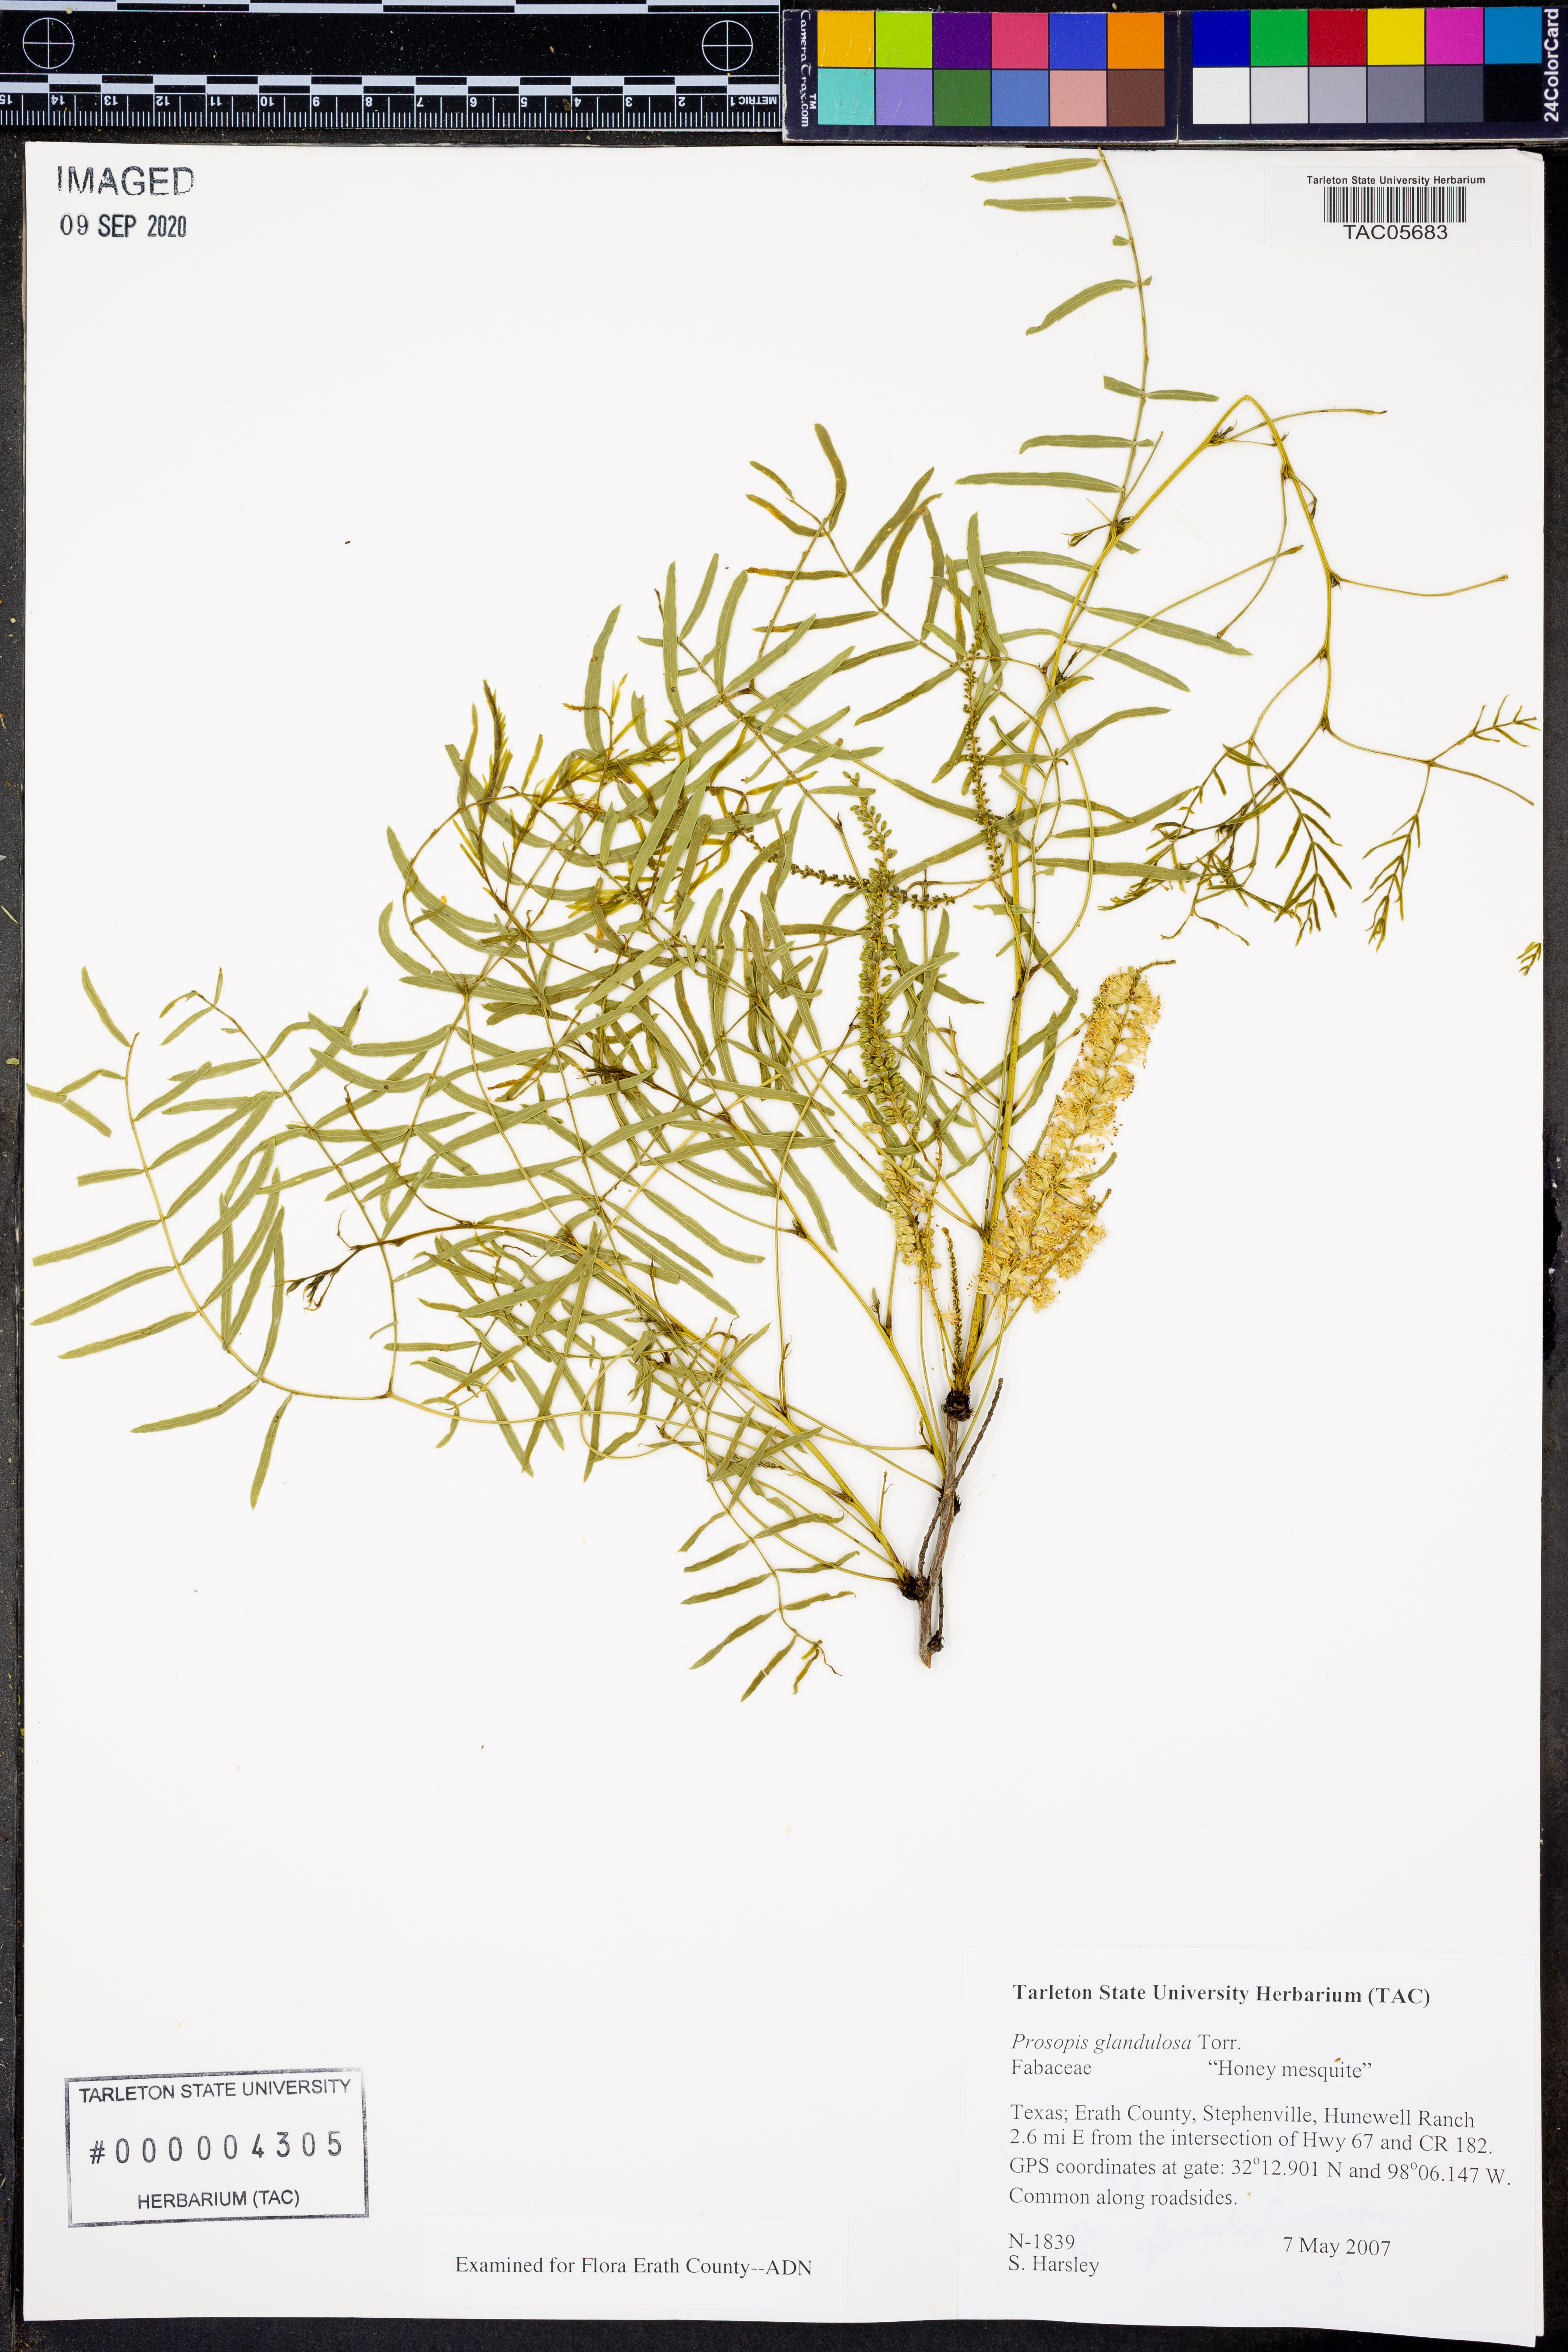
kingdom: Plantae
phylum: Tracheophyta
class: Magnoliopsida
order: Fabales
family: Fabaceae
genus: Prosopis
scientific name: Prosopis glandulosa
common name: Honey mesquite
